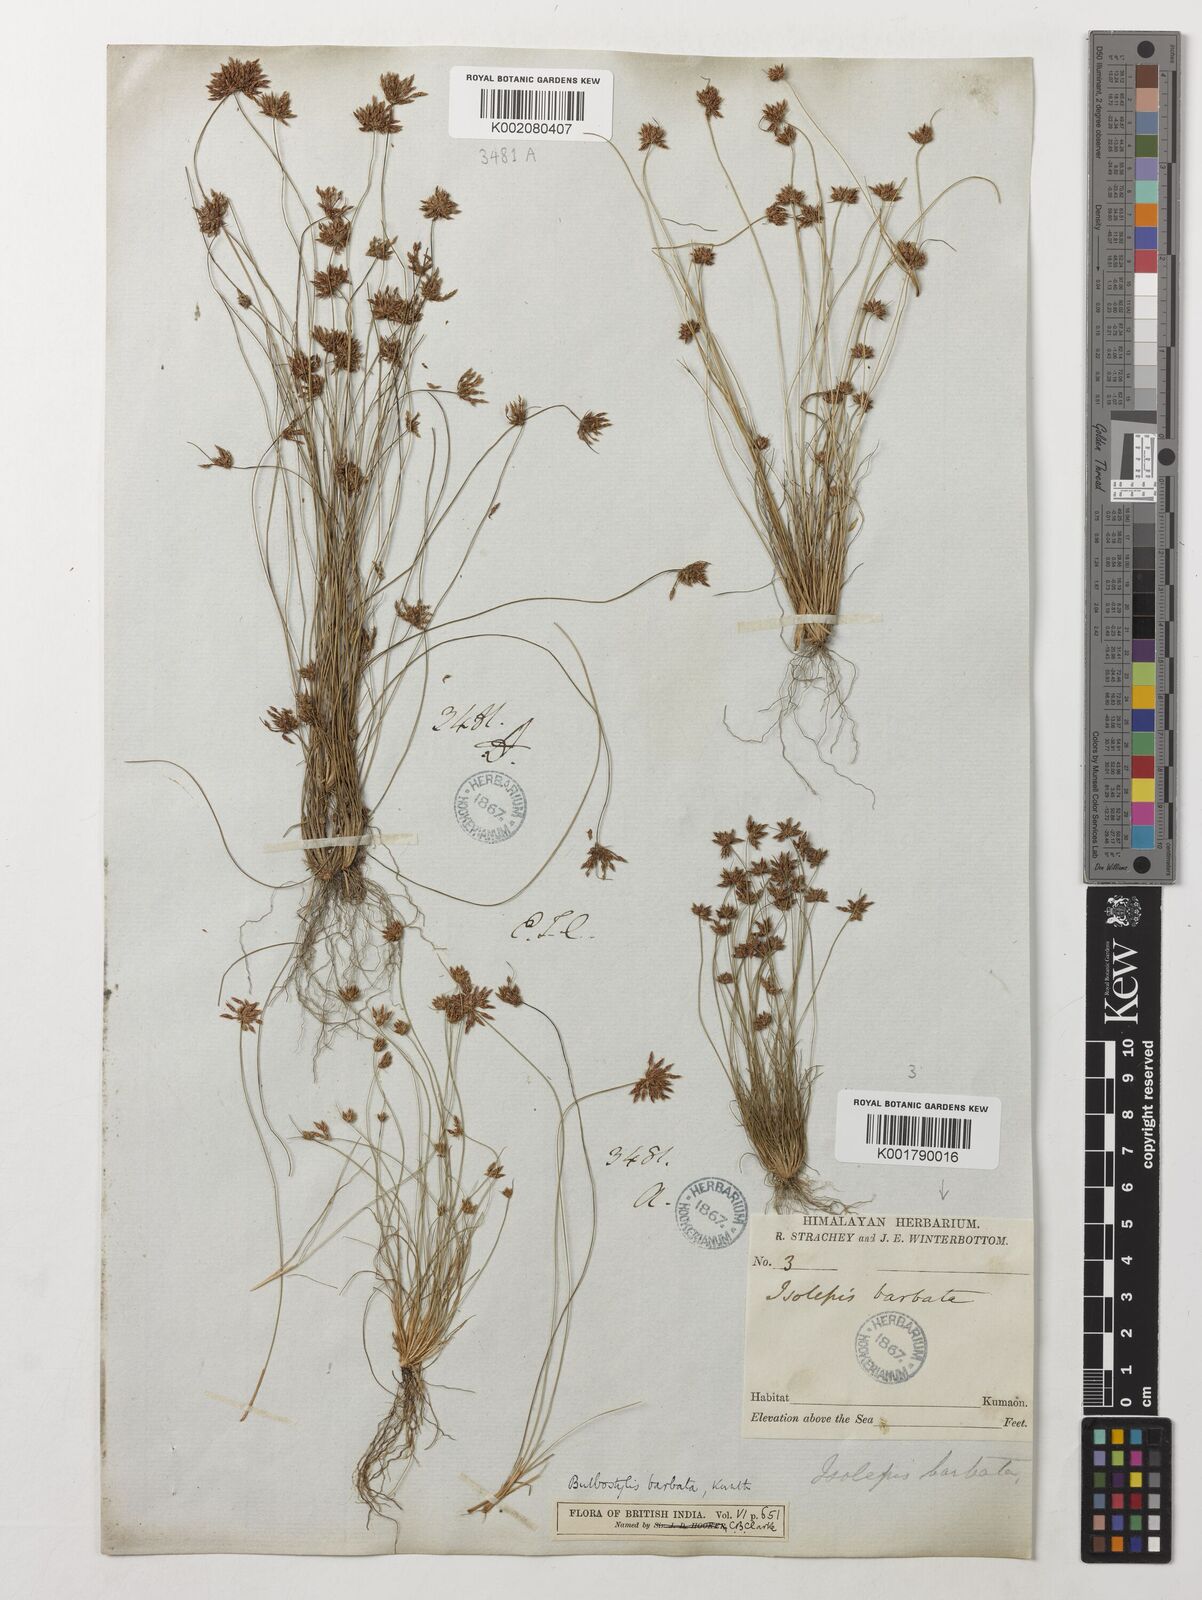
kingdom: Plantae
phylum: Tracheophyta
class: Liliopsida
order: Poales
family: Cyperaceae
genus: Bulbostylis
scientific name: Bulbostylis barbata
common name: Watergrass
